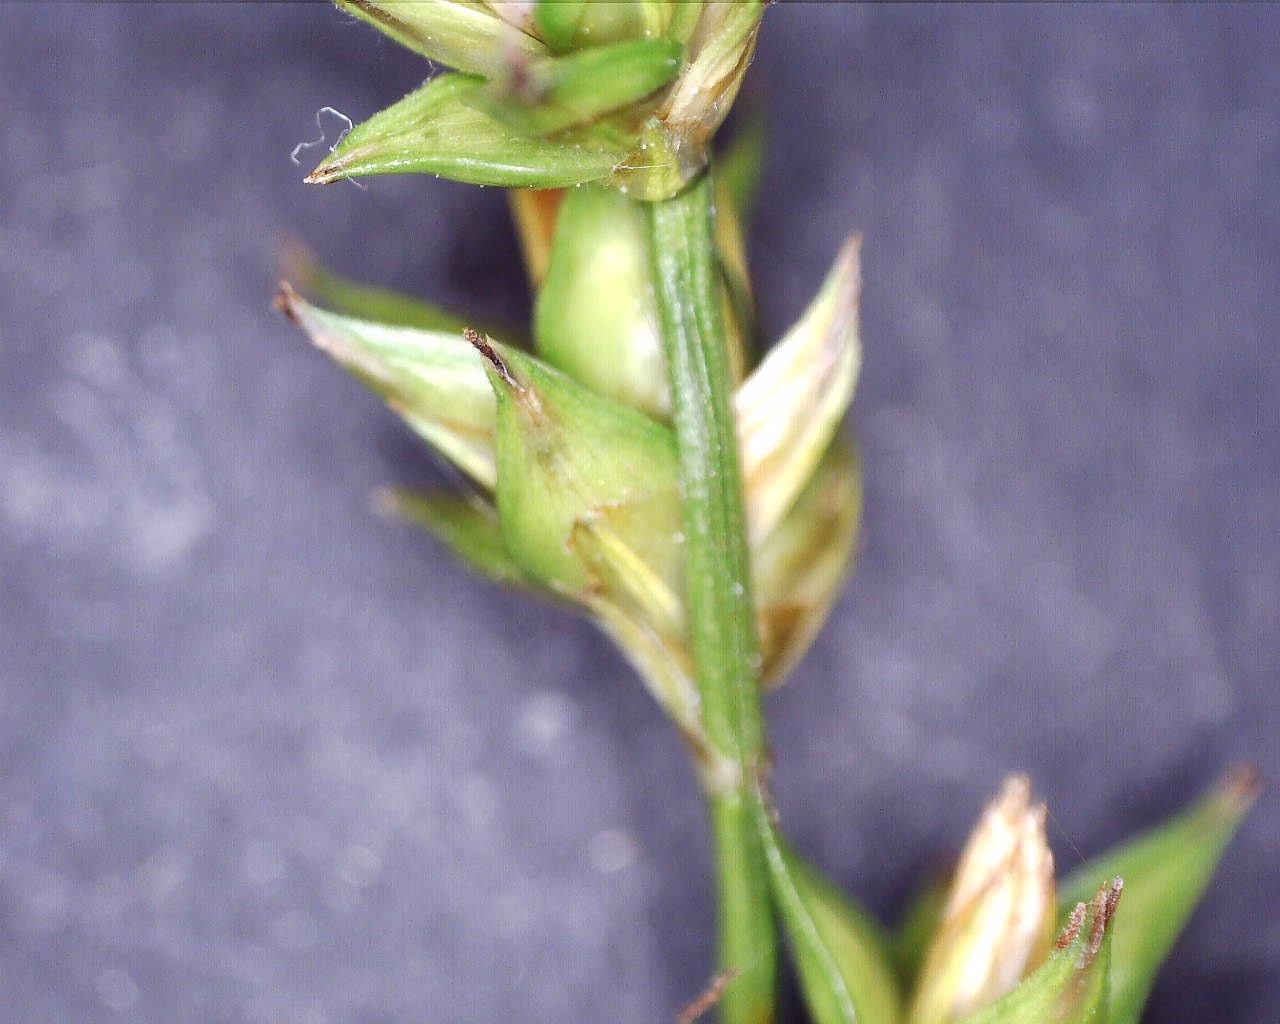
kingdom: Plantae
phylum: Tracheophyta
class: Liliopsida
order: Poales
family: Cyperaceae
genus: Carex
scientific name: Carex divulsa
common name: Mellembrudt star
